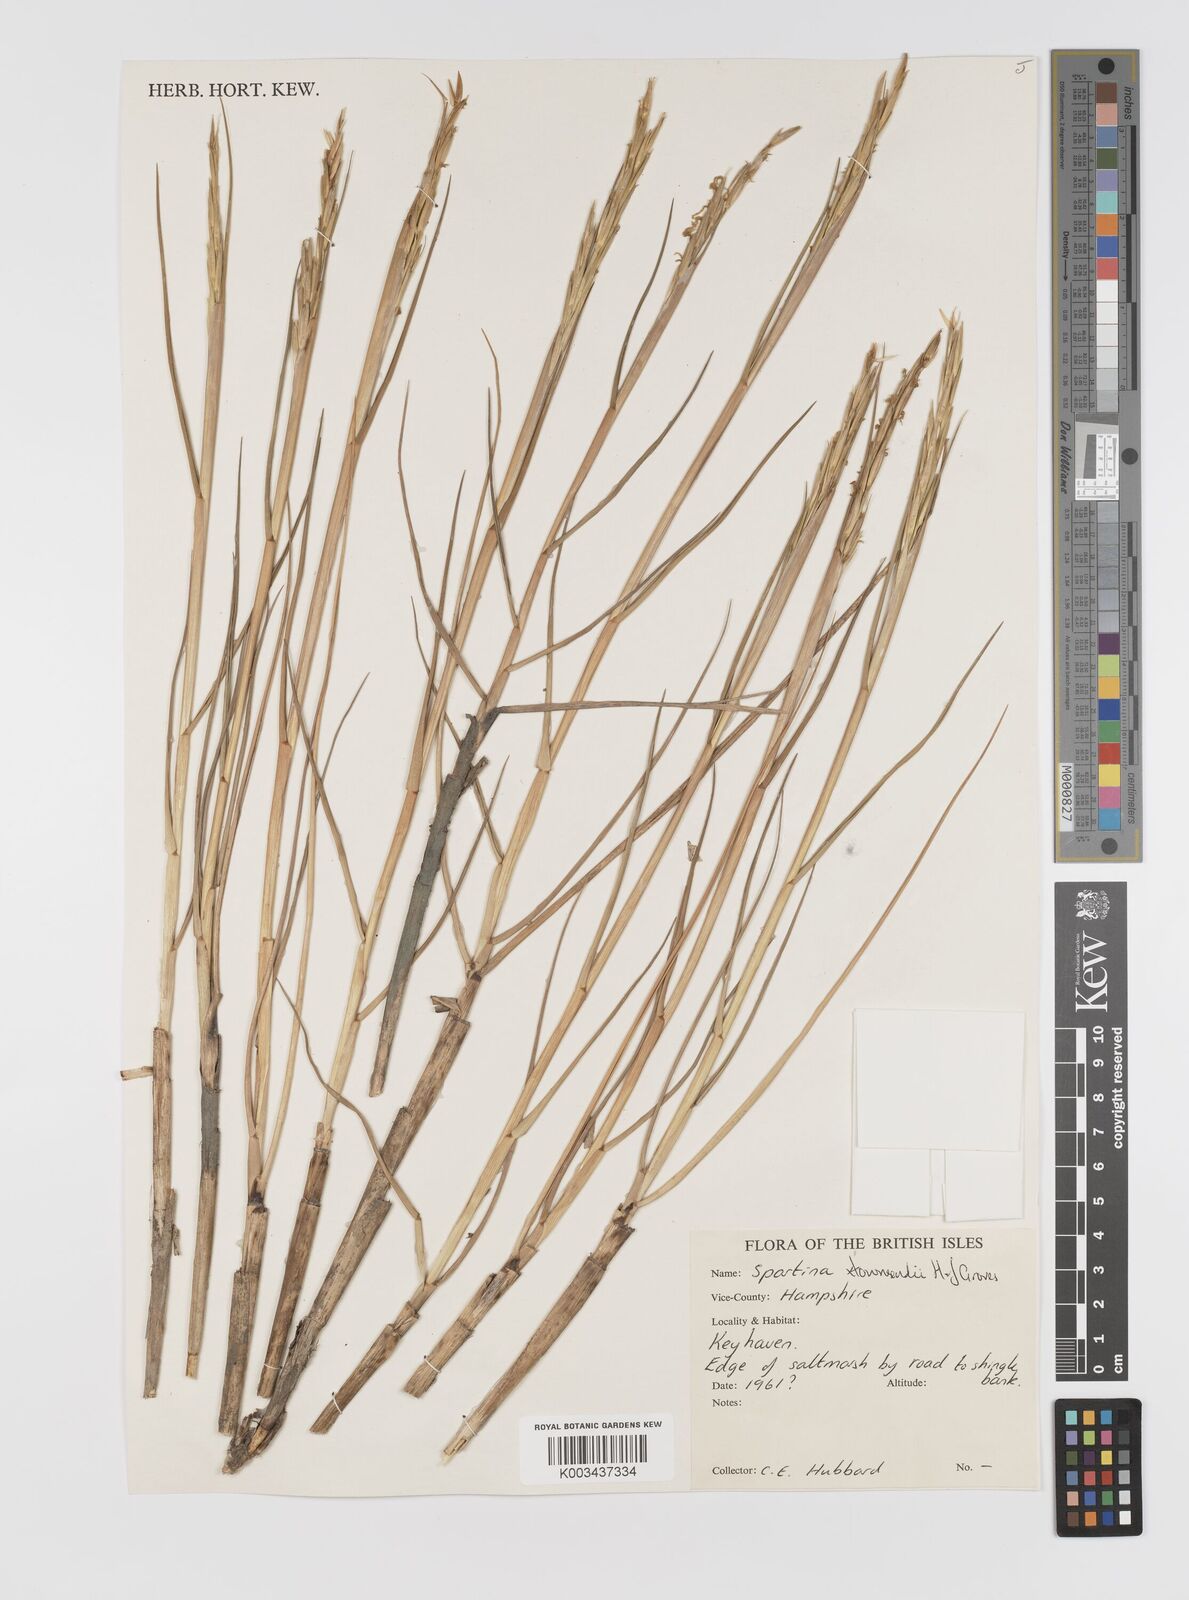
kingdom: Plantae
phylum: Tracheophyta
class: Liliopsida
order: Poales
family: Poaceae
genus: Sporobolus
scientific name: Sporobolus townsendii
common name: Townsend's cordgrass
